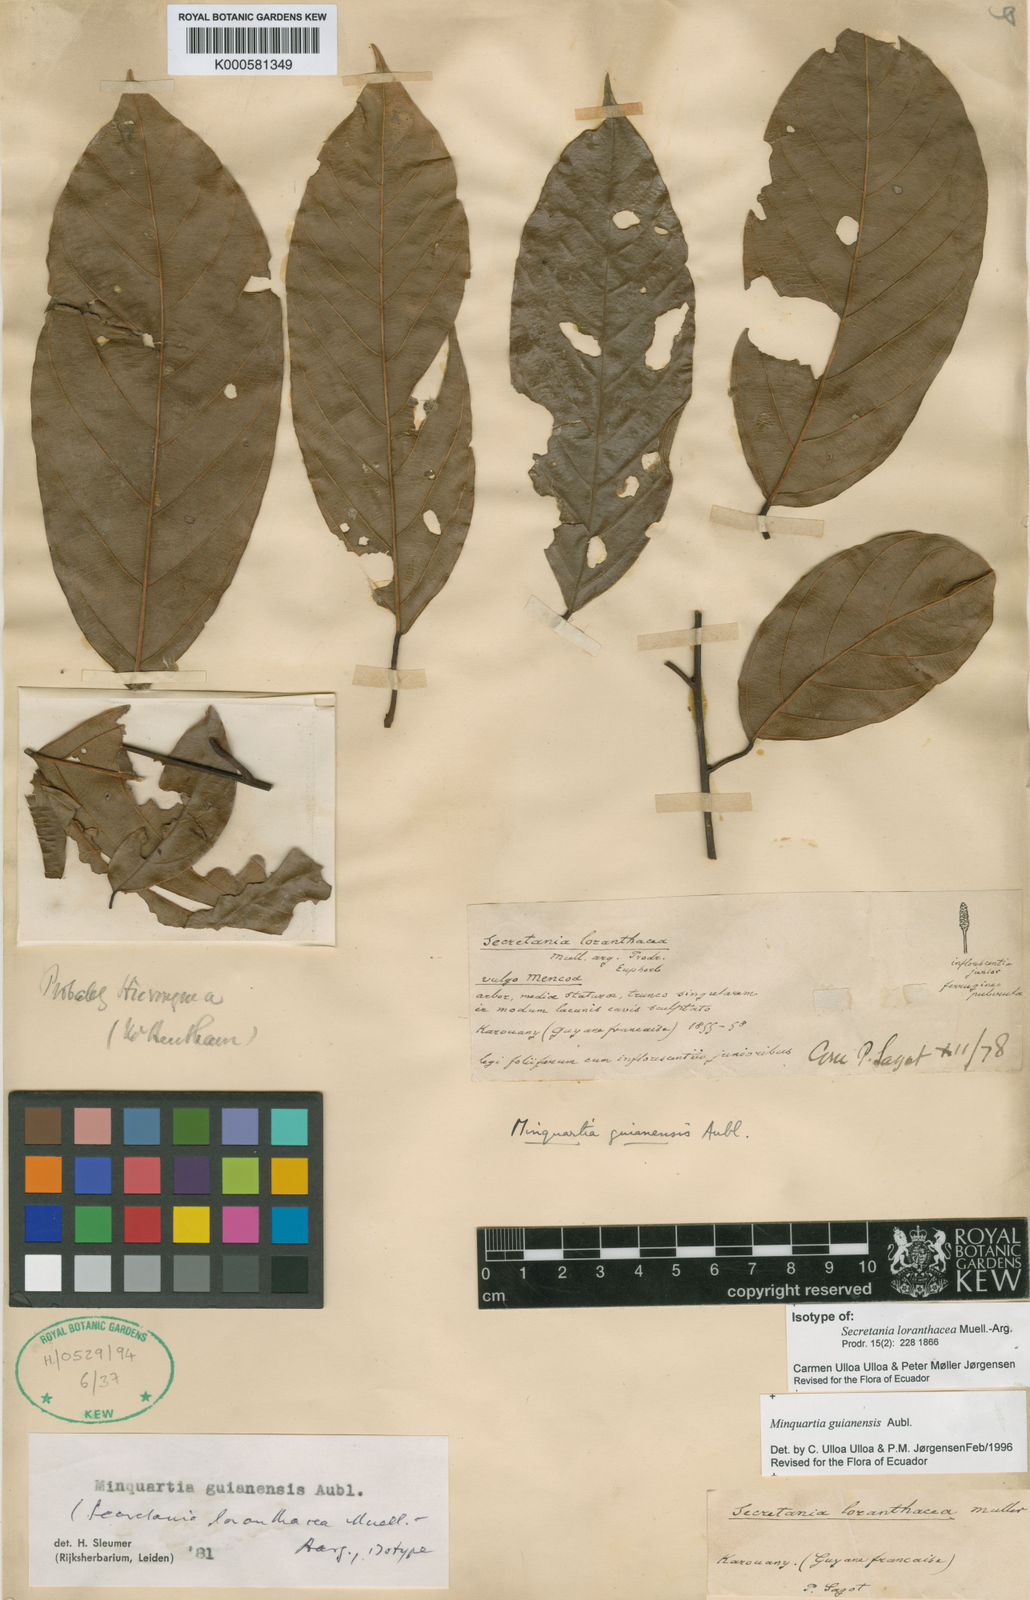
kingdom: Plantae
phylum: Tracheophyta
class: Magnoliopsida
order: Santalales
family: Coulaceae
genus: Minquartia
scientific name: Minquartia guianensis
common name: Black manwood
